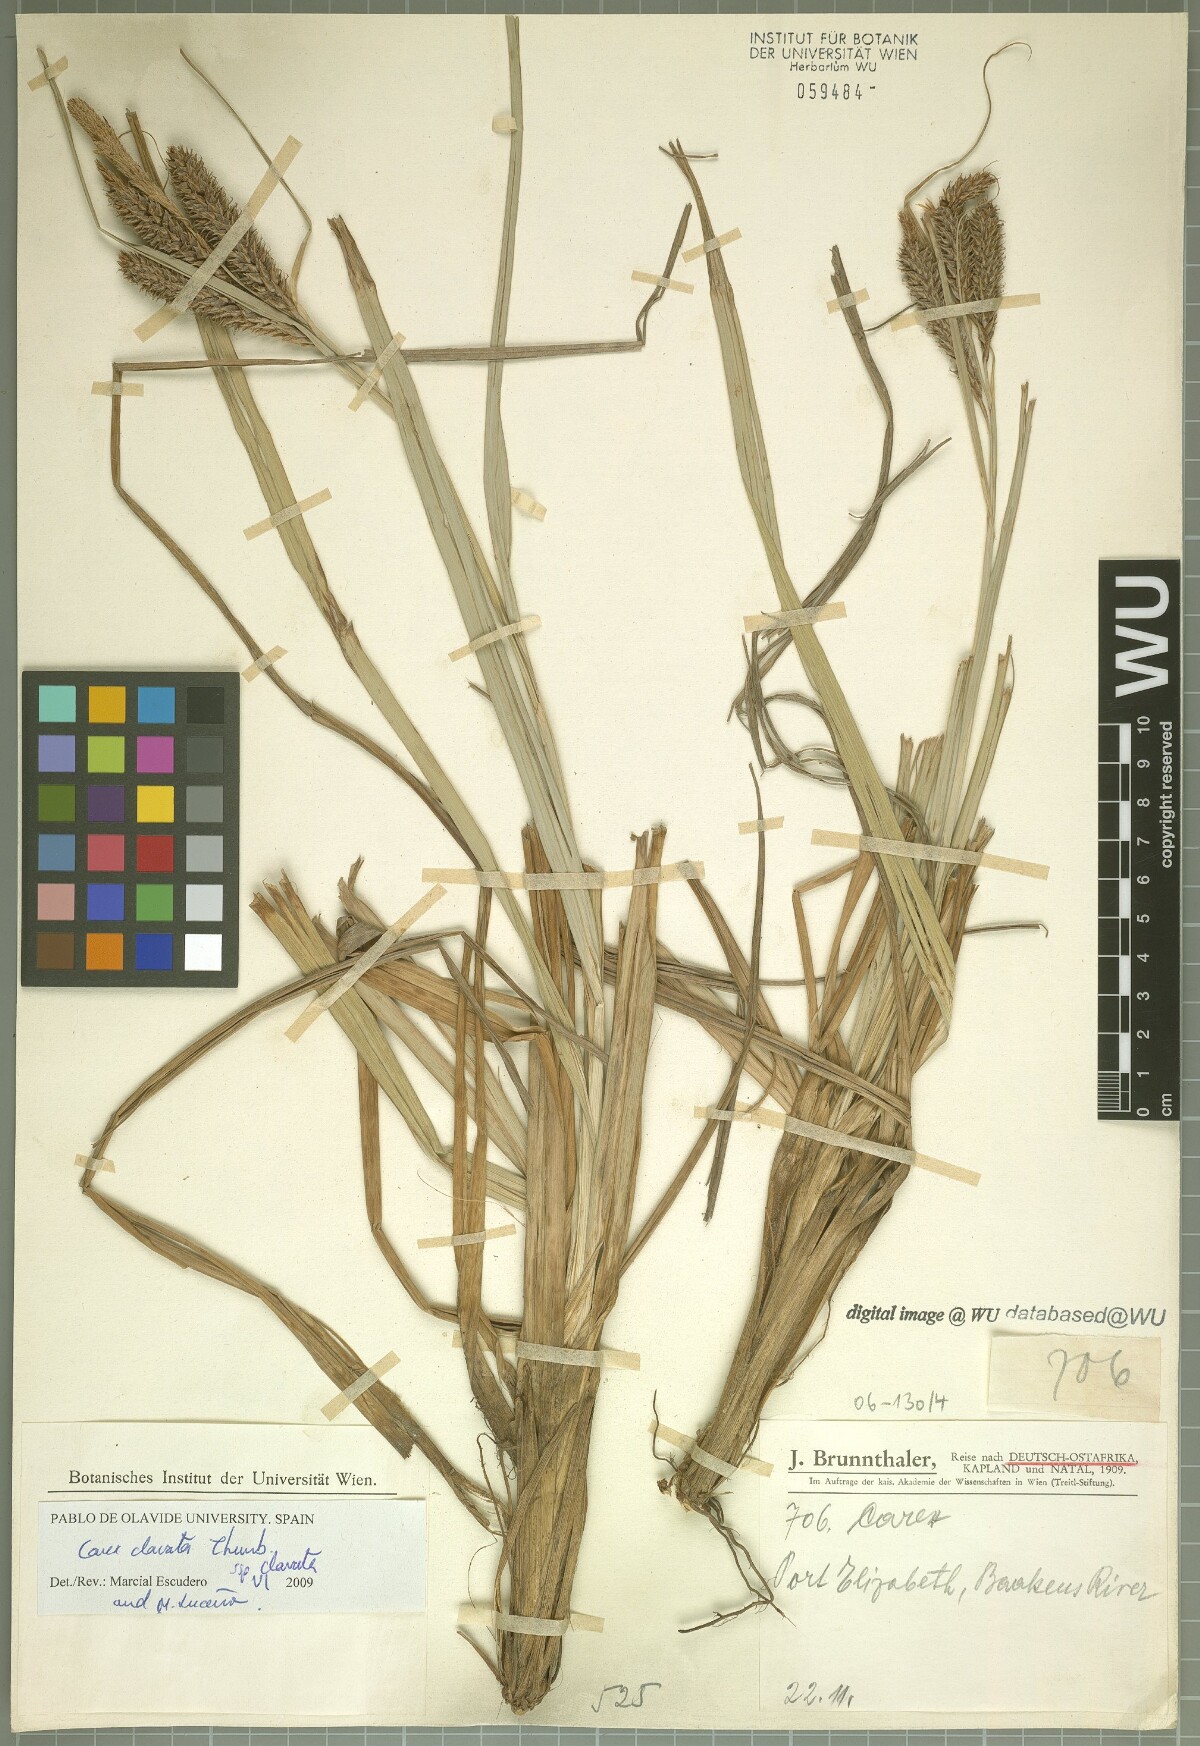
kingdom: Plantae
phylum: Tracheophyta
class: Liliopsida
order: Poales
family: Cyperaceae
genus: Carex
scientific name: Carex clavata
